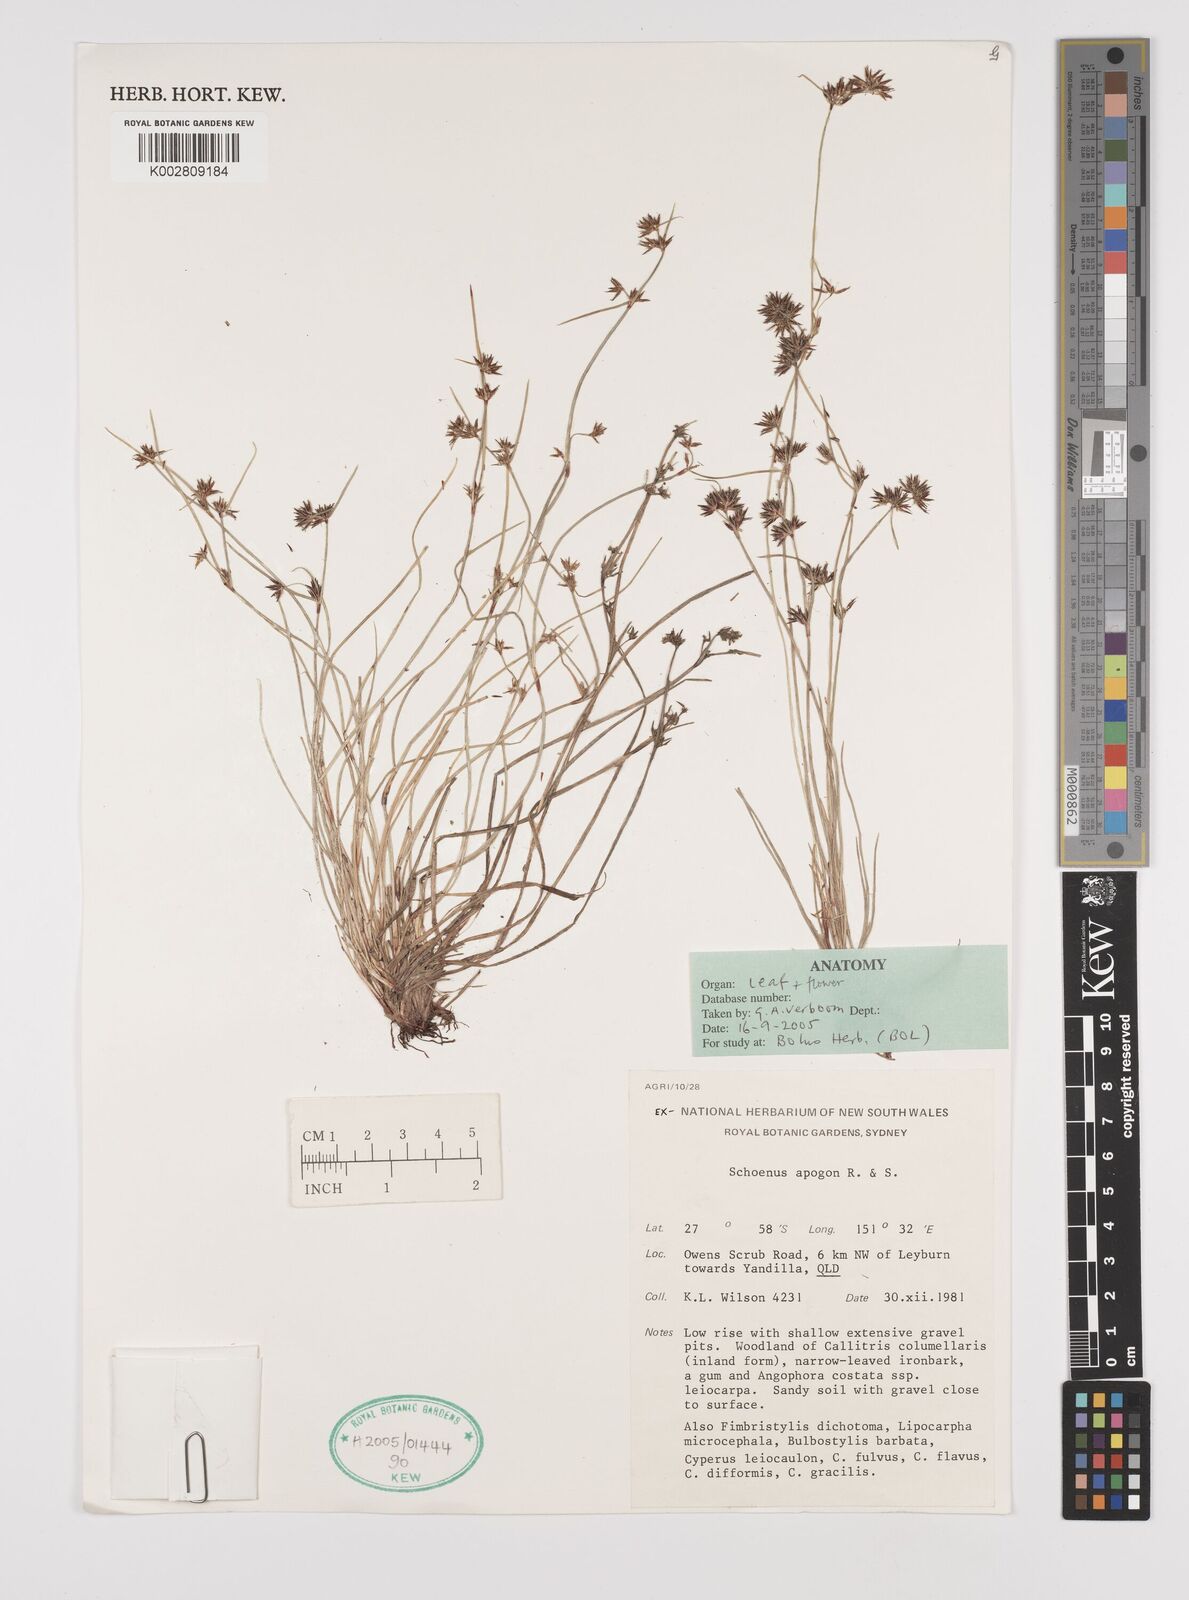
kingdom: Plantae
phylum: Tracheophyta
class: Liliopsida
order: Poales
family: Cyperaceae
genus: Schoenus
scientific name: Schoenus apogon
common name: Smooth bogrush
